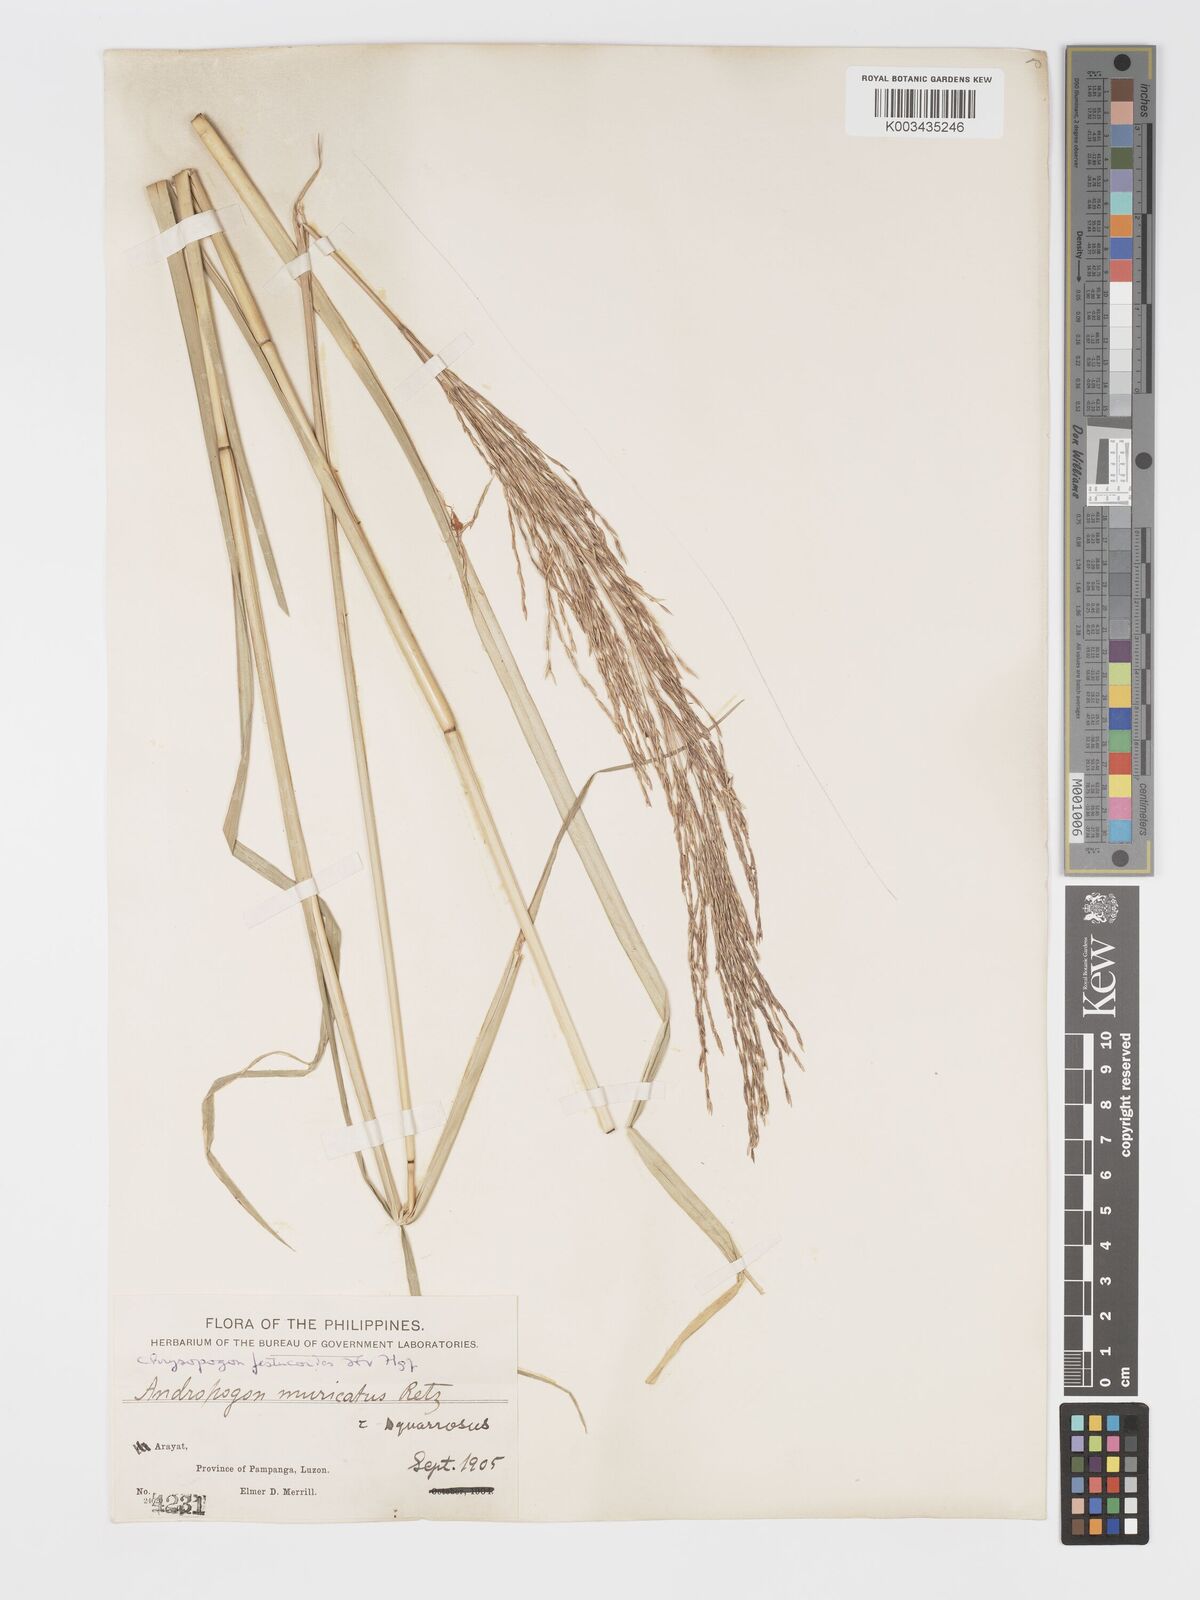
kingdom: Plantae
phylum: Tracheophyta
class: Liliopsida
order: Poales
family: Poaceae
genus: Chrysopogon
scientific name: Chrysopogon festucoides
